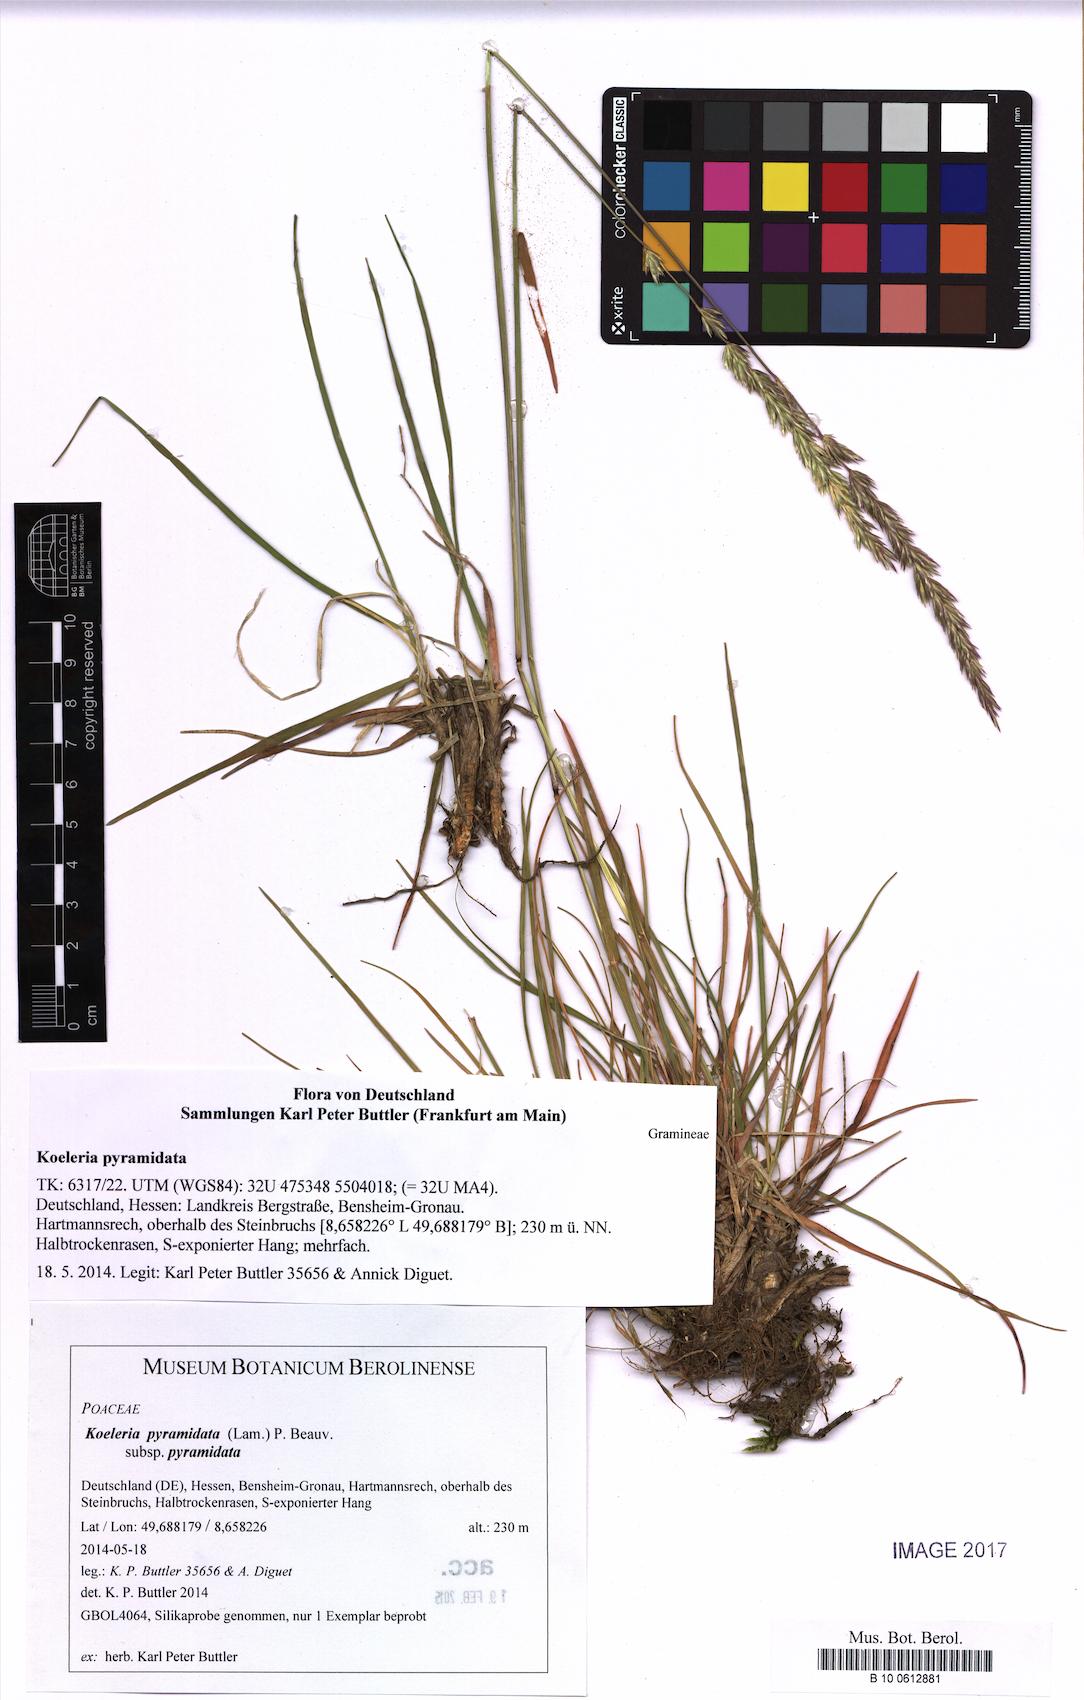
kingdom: Plantae
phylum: Tracheophyta
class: Liliopsida
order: Poales
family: Poaceae
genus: Koeleria
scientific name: Koeleria pyramidata
